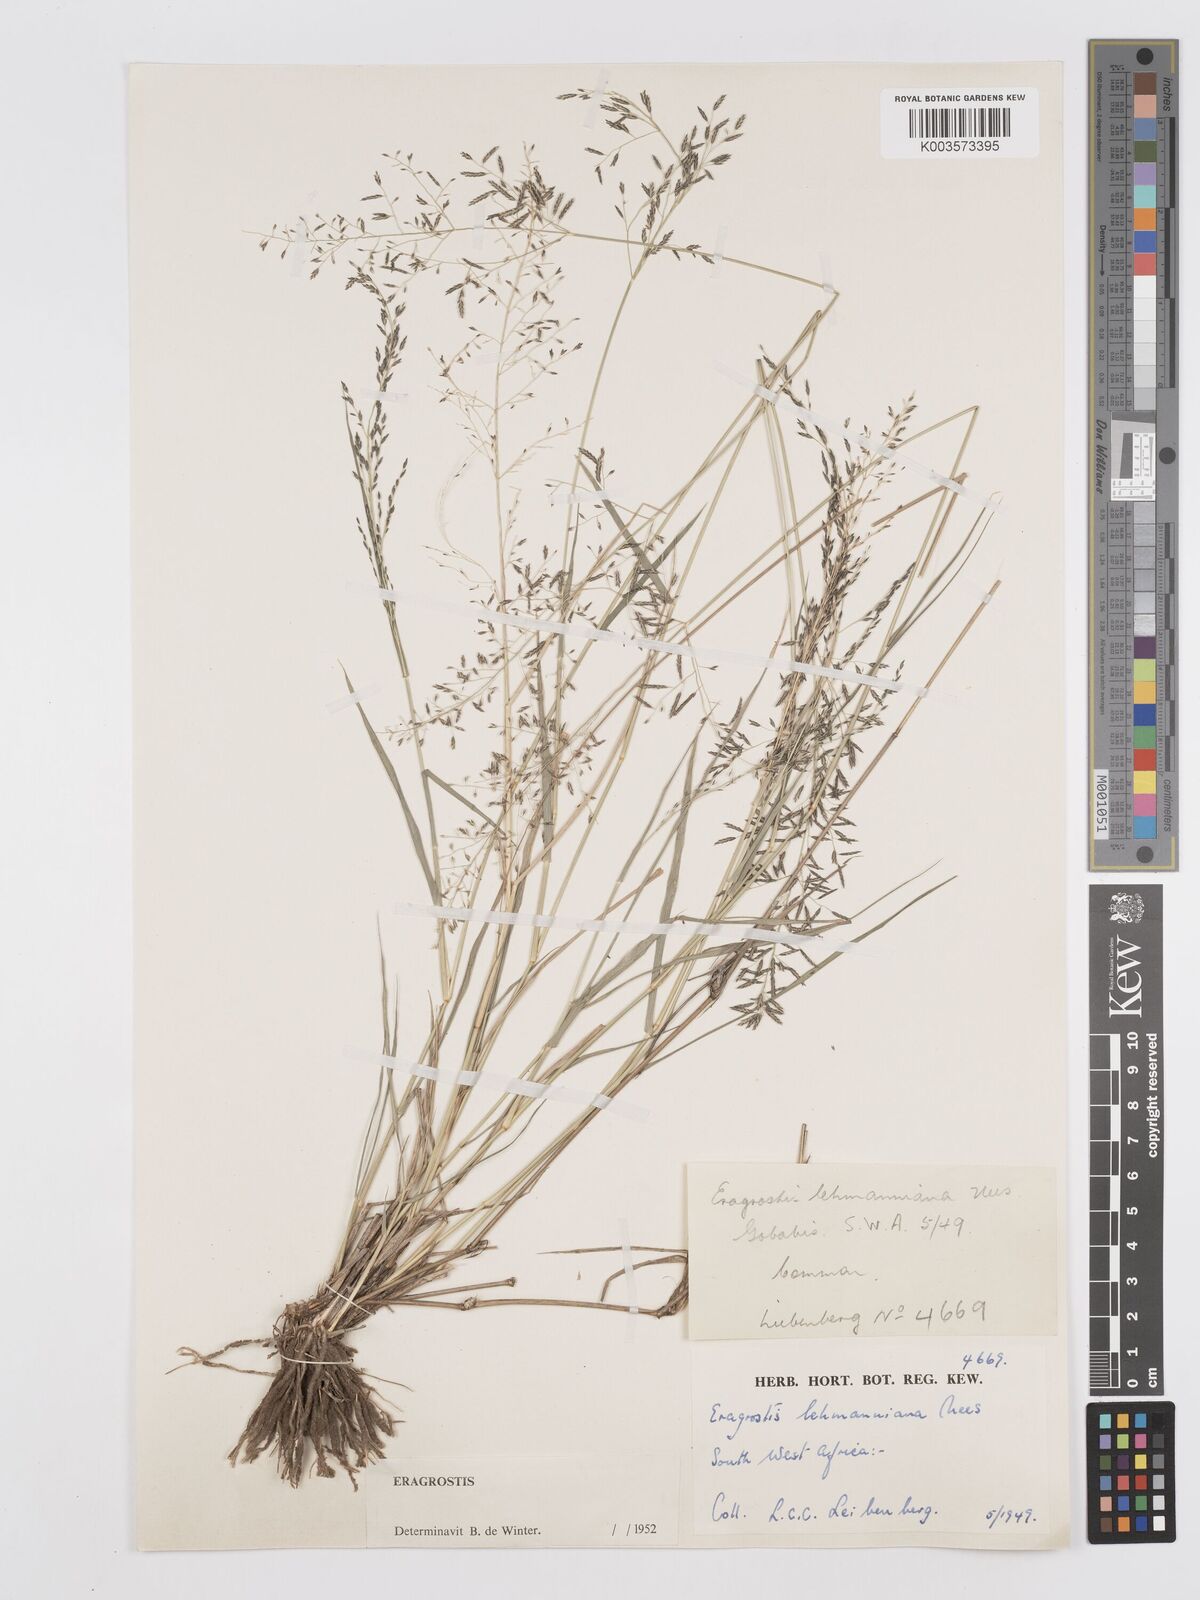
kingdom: Plantae
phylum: Tracheophyta
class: Liliopsida
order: Poales
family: Poaceae
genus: Eragrostis
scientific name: Eragrostis lehmanniana
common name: Lehmann lovegrass
